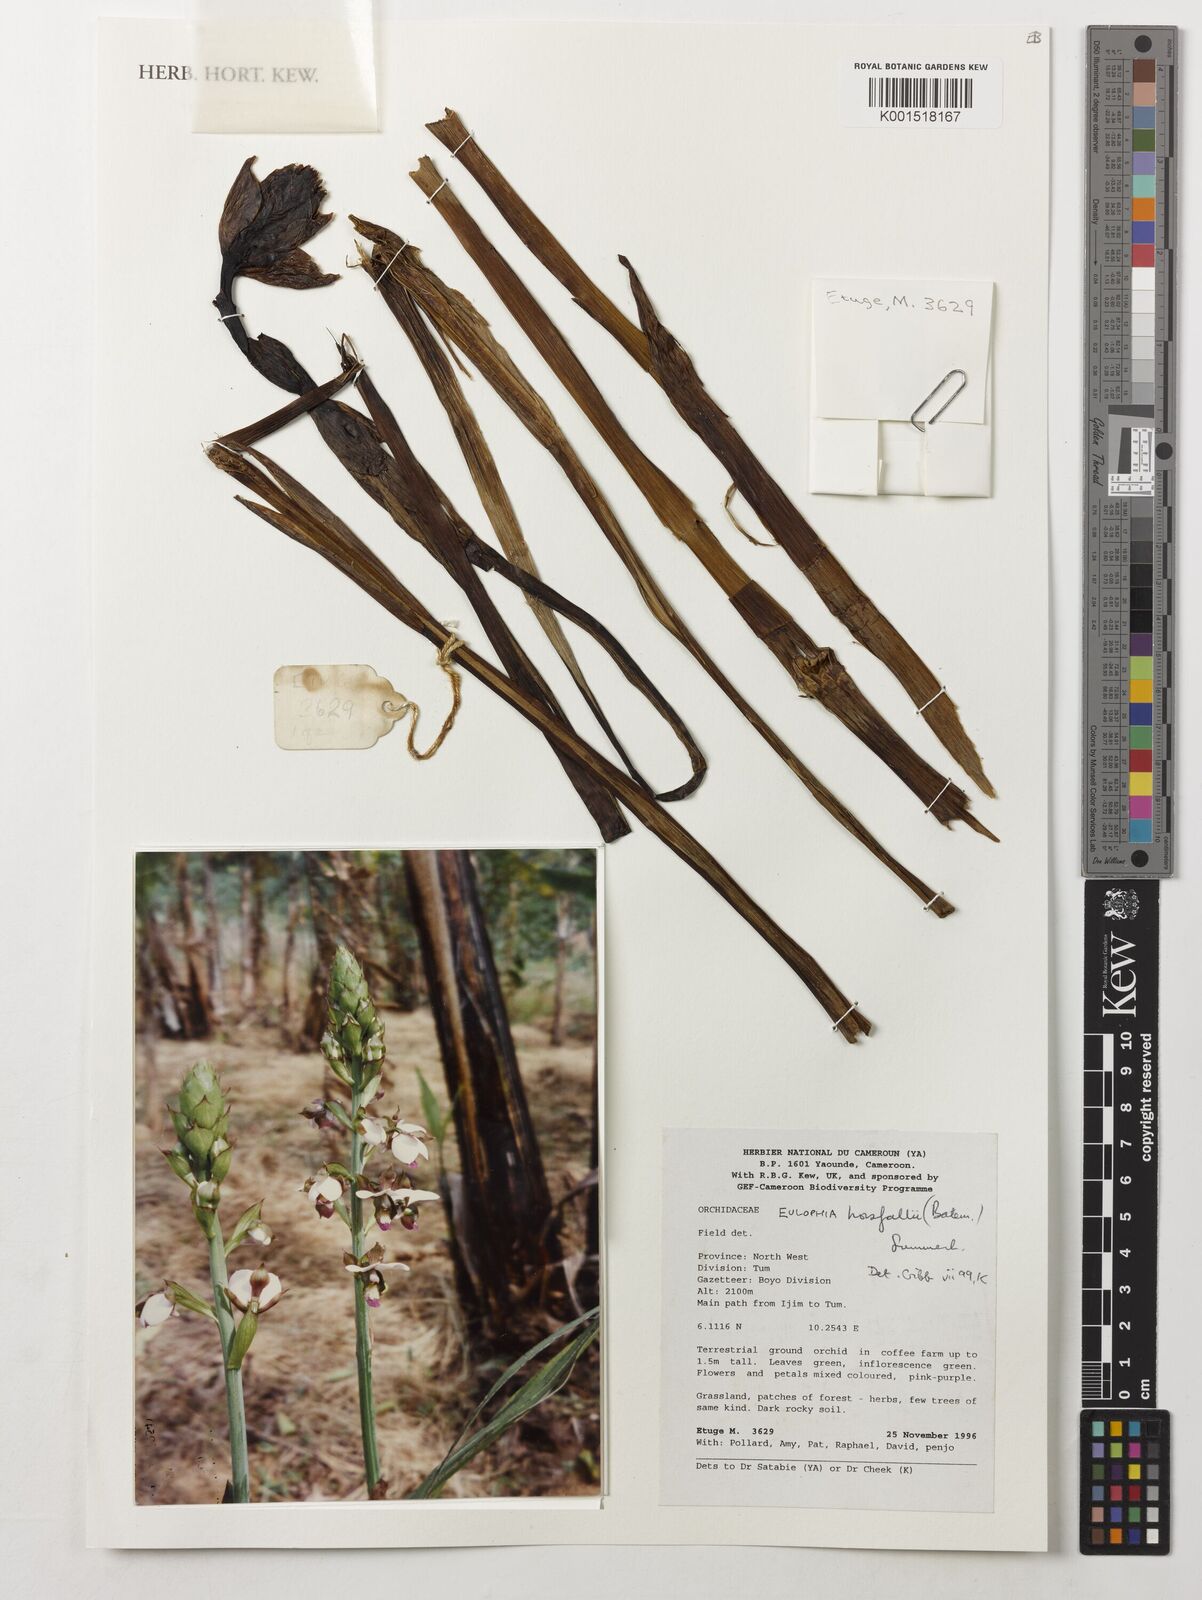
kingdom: Plantae
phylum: Tracheophyta
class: Liliopsida
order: Asparagales
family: Orchidaceae
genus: Eulophia
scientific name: Eulophia horsfallii
